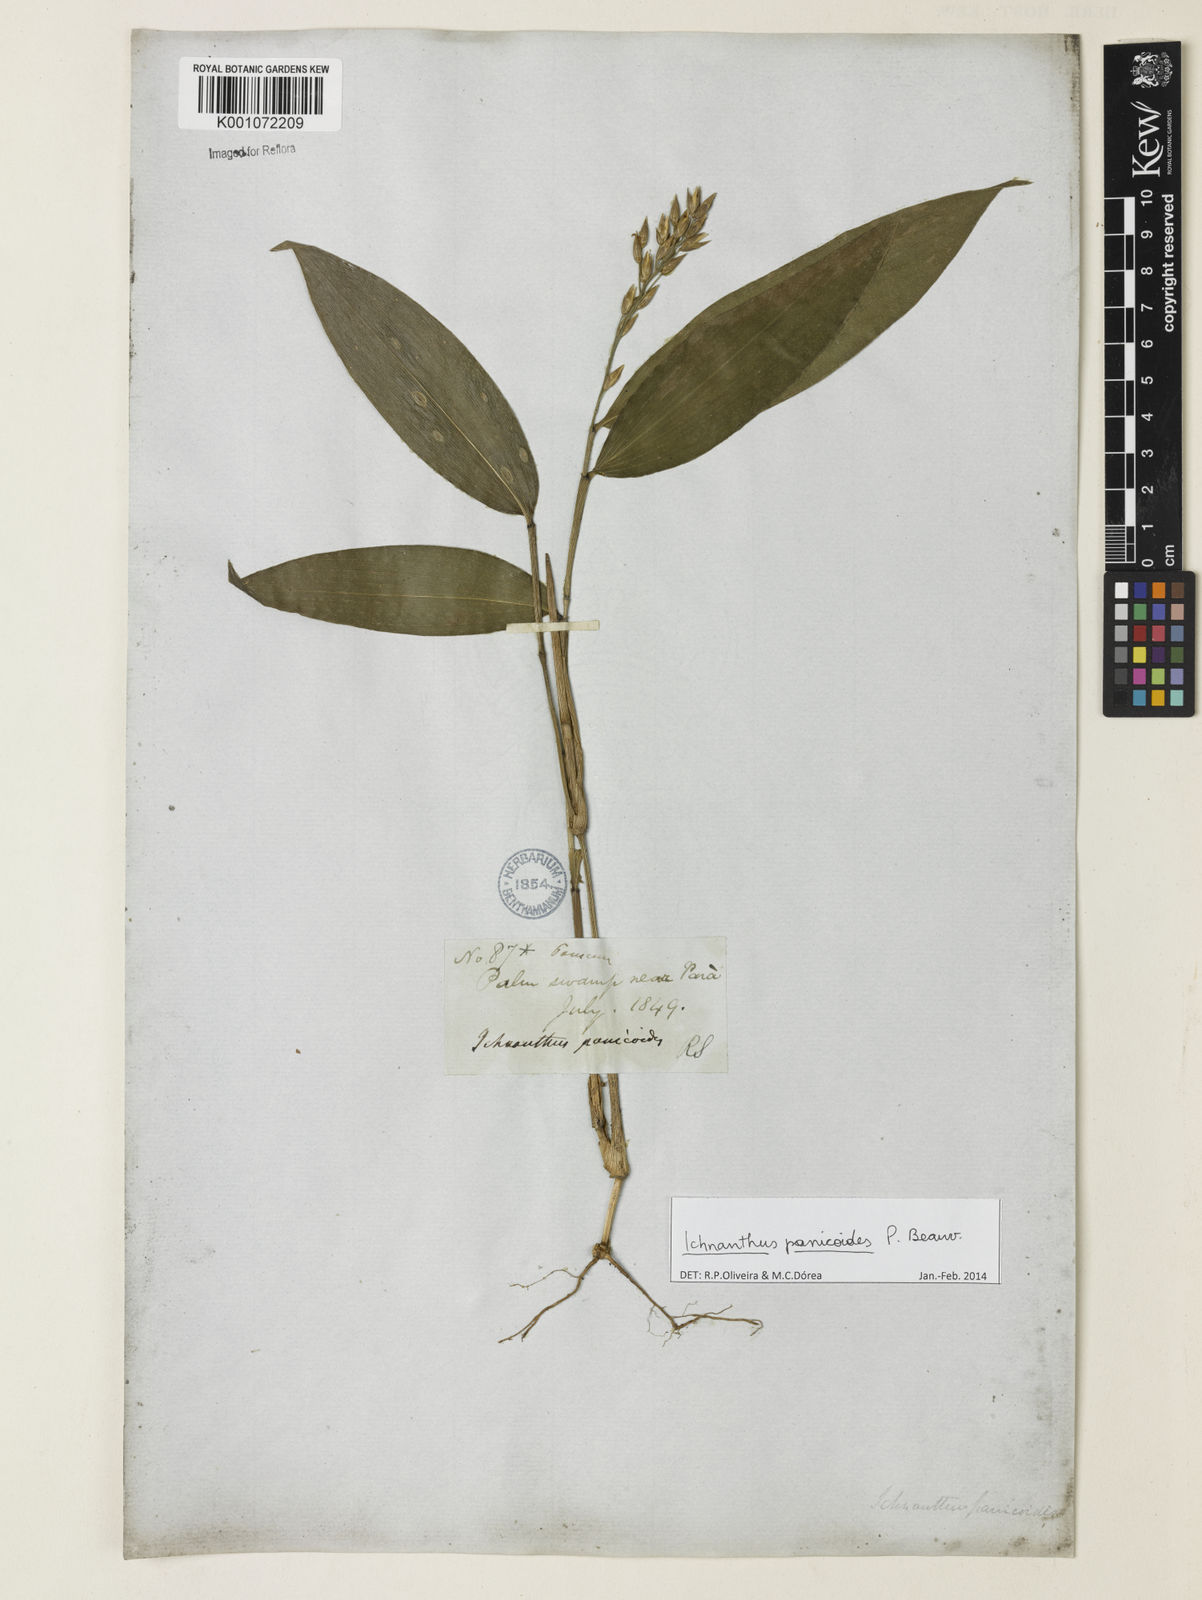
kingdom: Plantae
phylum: Tracheophyta
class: Liliopsida
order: Poales
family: Poaceae
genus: Ichnanthus
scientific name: Ichnanthus panicoides
